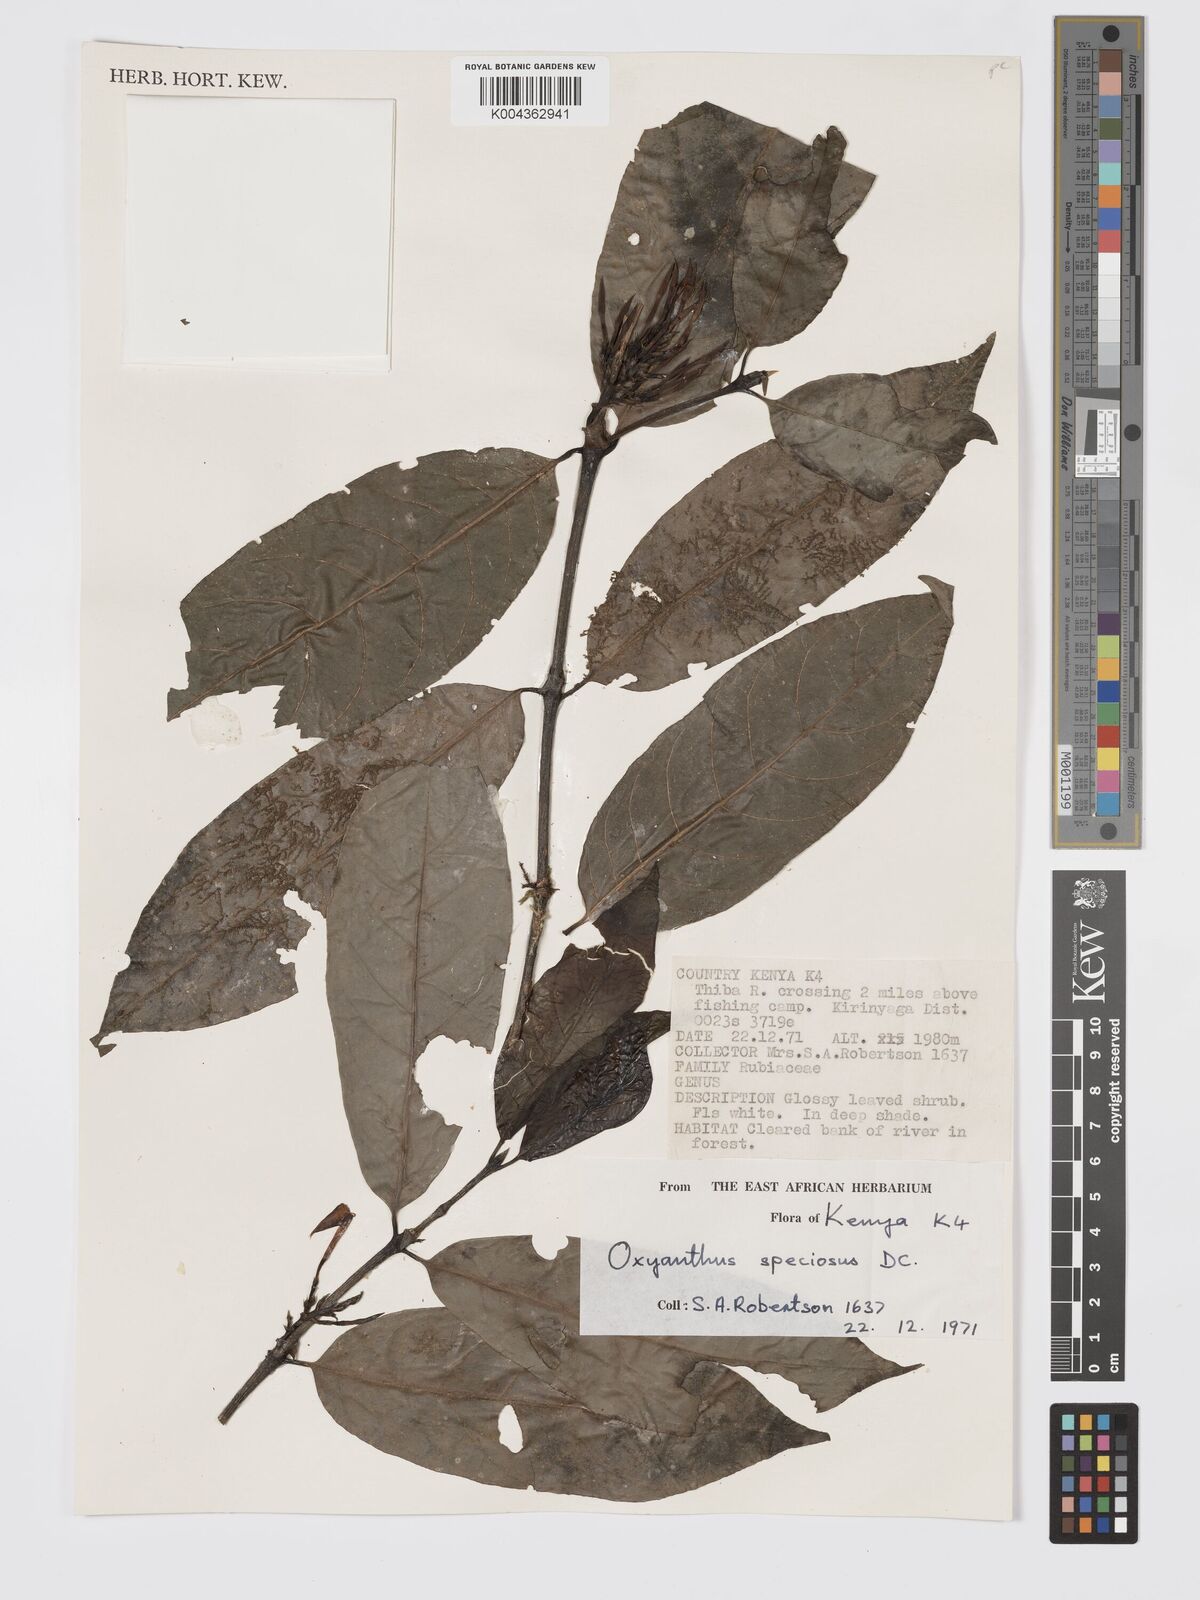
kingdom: Plantae
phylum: Tracheophyta
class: Magnoliopsida
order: Gentianales
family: Rubiaceae
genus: Oxyanthus
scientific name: Oxyanthus speciosus
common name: Whipstick loquat
